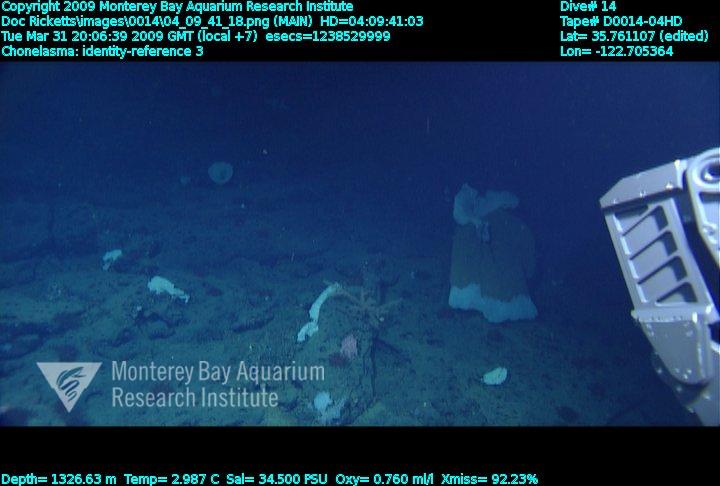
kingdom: Animalia
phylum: Porifera
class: Hexactinellida
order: Sceptrulophora
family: Euretidae
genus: Chonelasma
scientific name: Chonelasma
